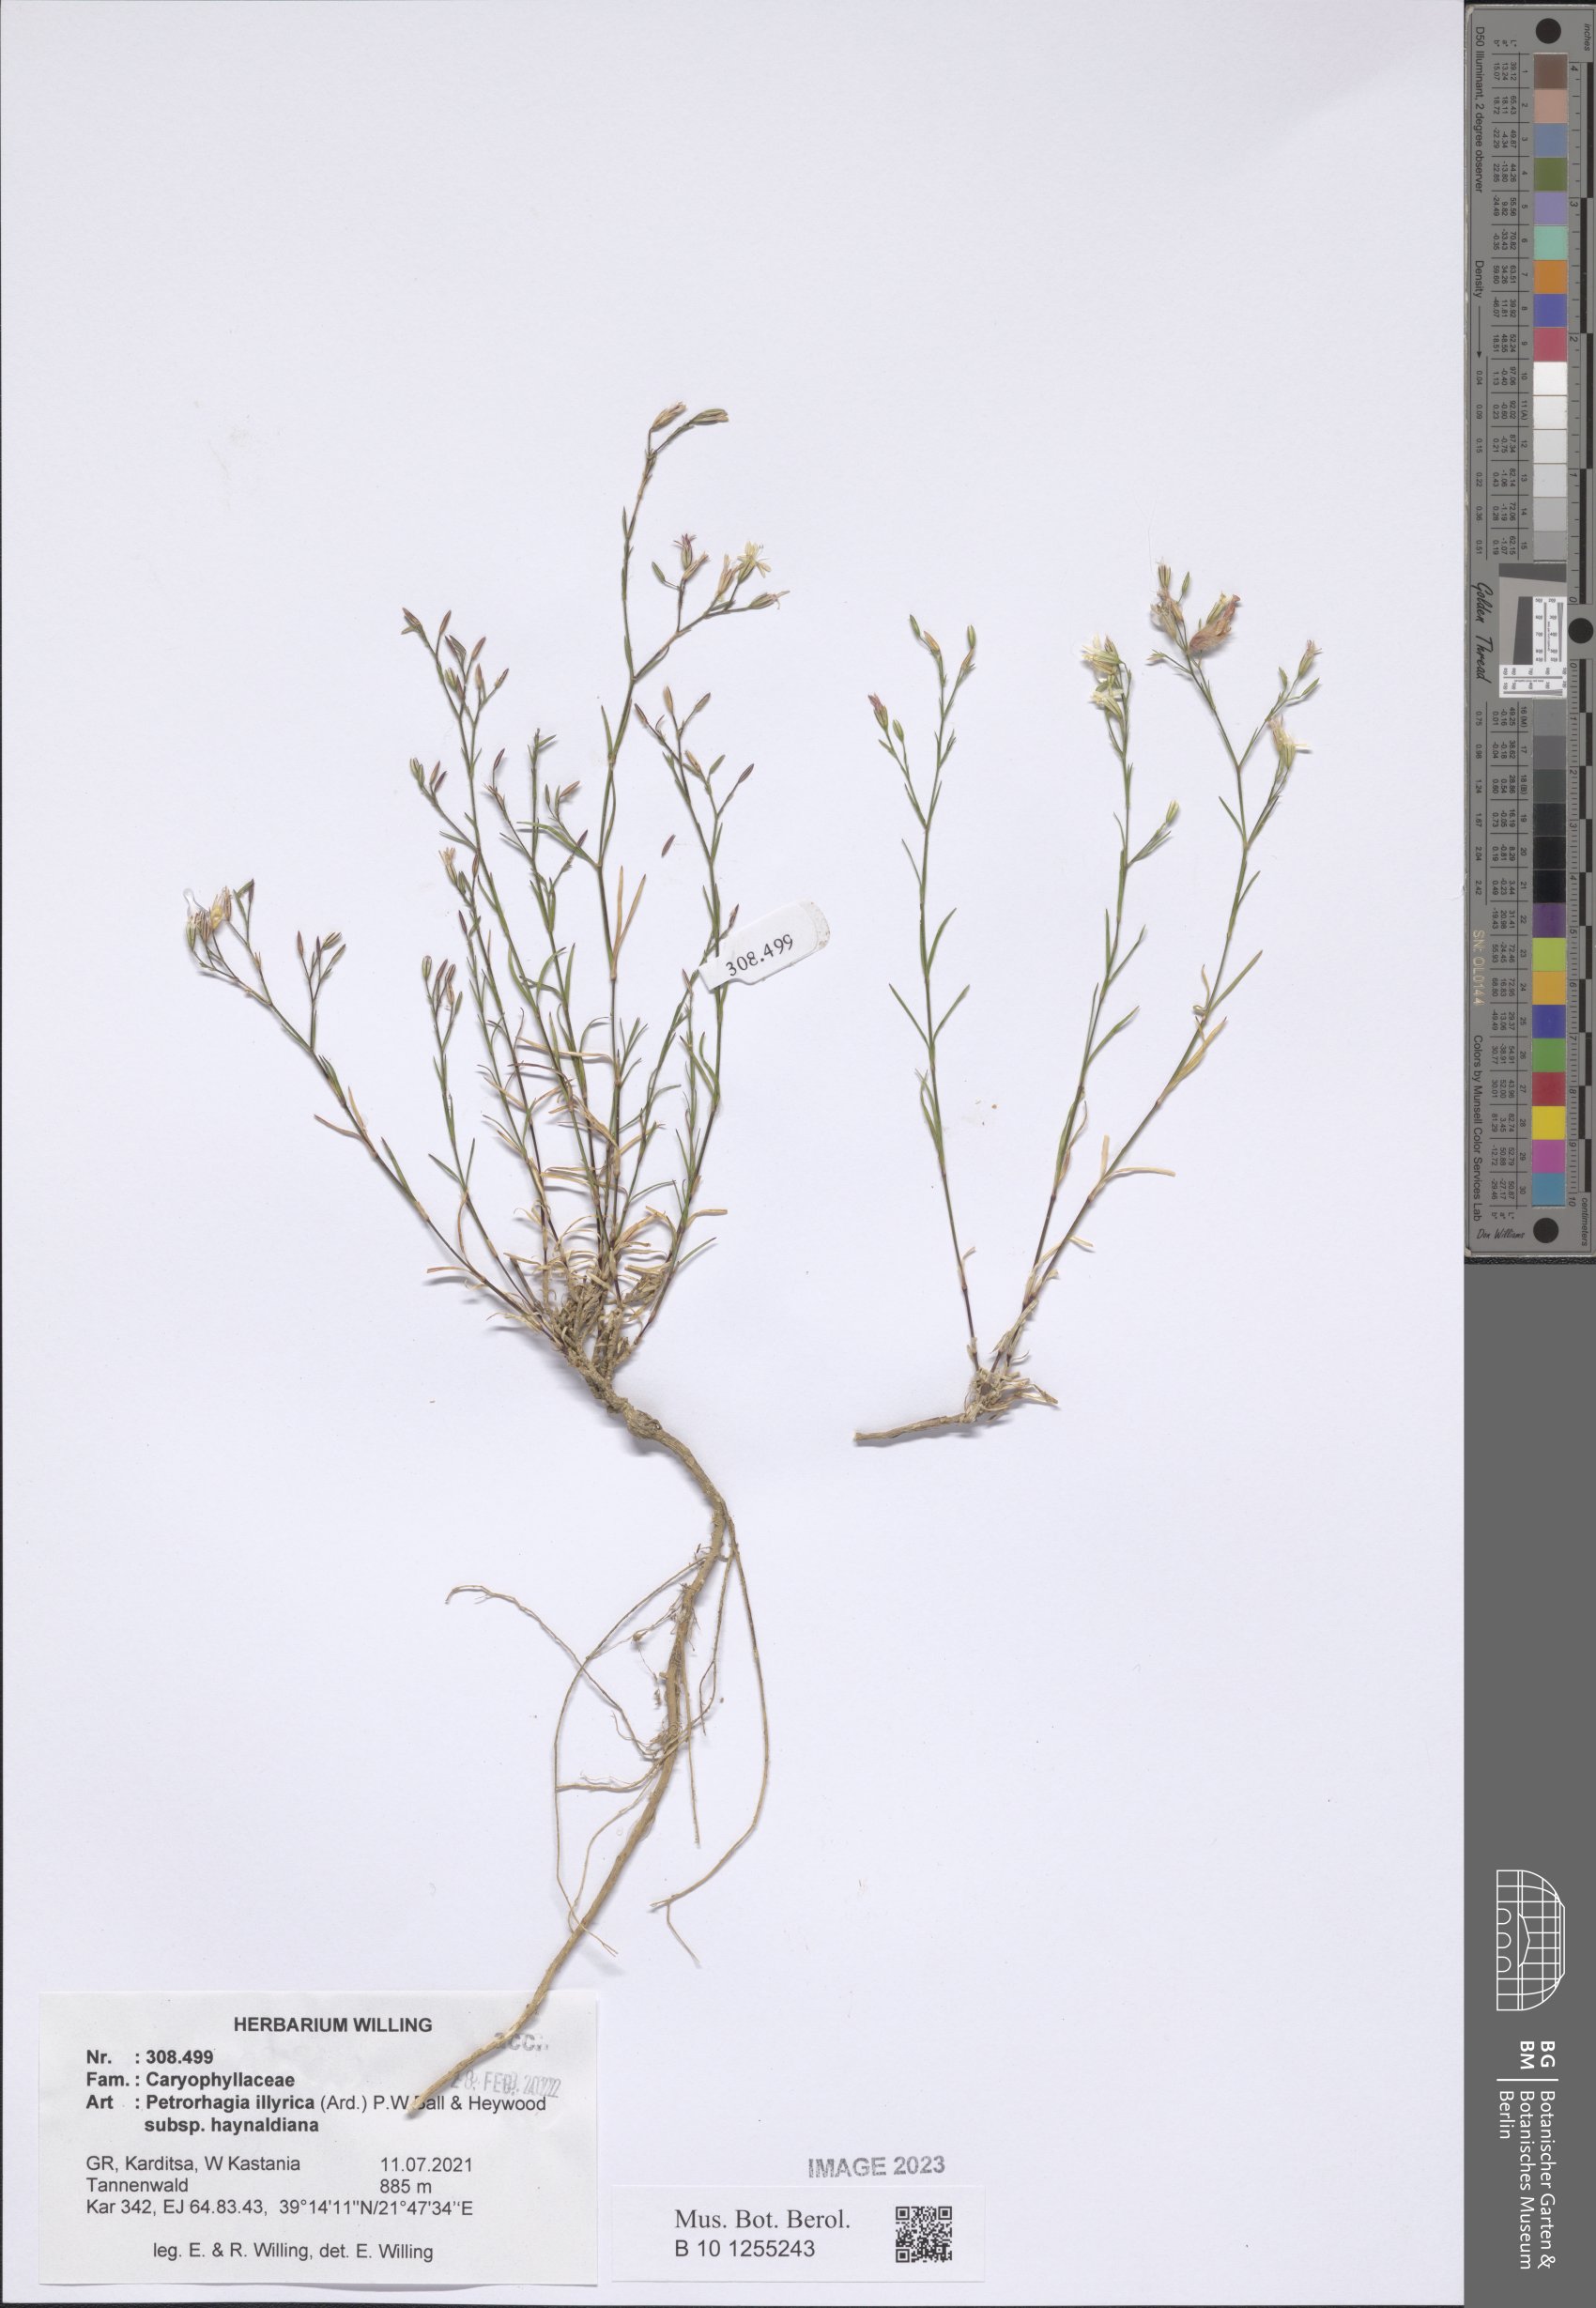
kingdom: Plantae
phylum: Tracheophyta
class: Magnoliopsida
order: Caryophyllales
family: Caryophyllaceae
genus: Dianthus
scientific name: Dianthus illyricus
